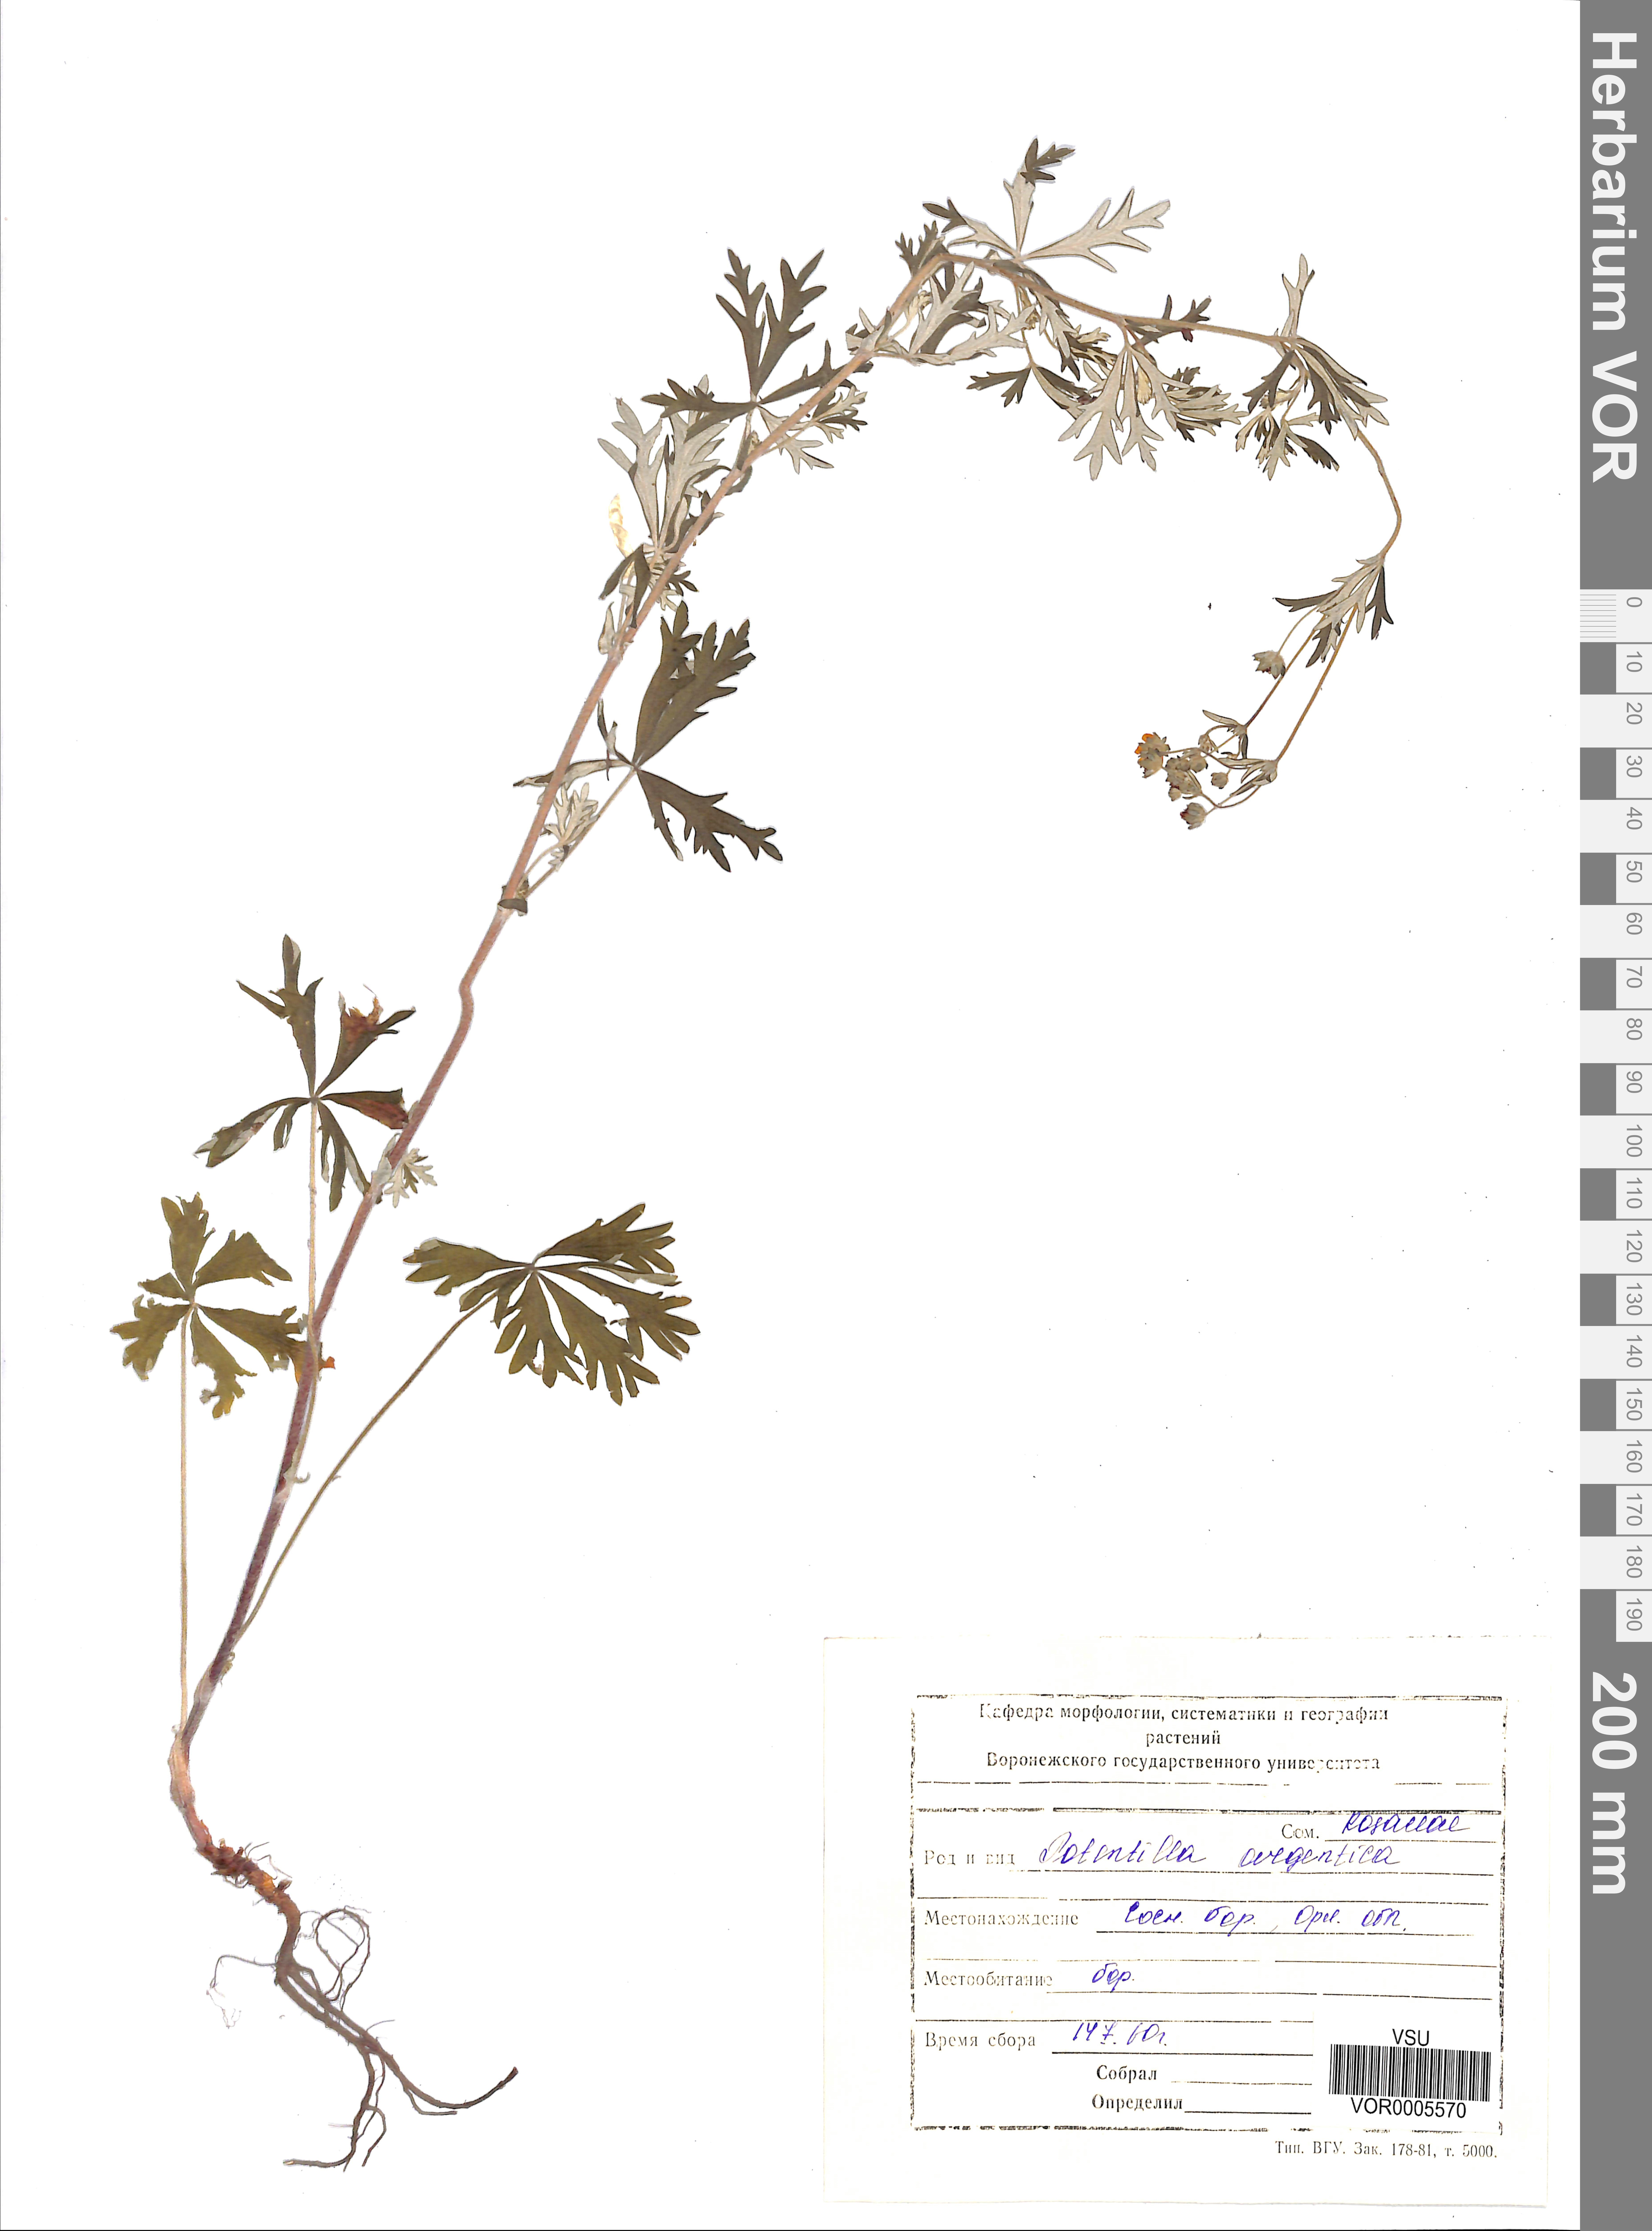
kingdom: Plantae
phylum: Tracheophyta
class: Magnoliopsida
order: Rosales
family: Rosaceae
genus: Potentilla
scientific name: Potentilla argentea
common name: Hoary cinquefoil
